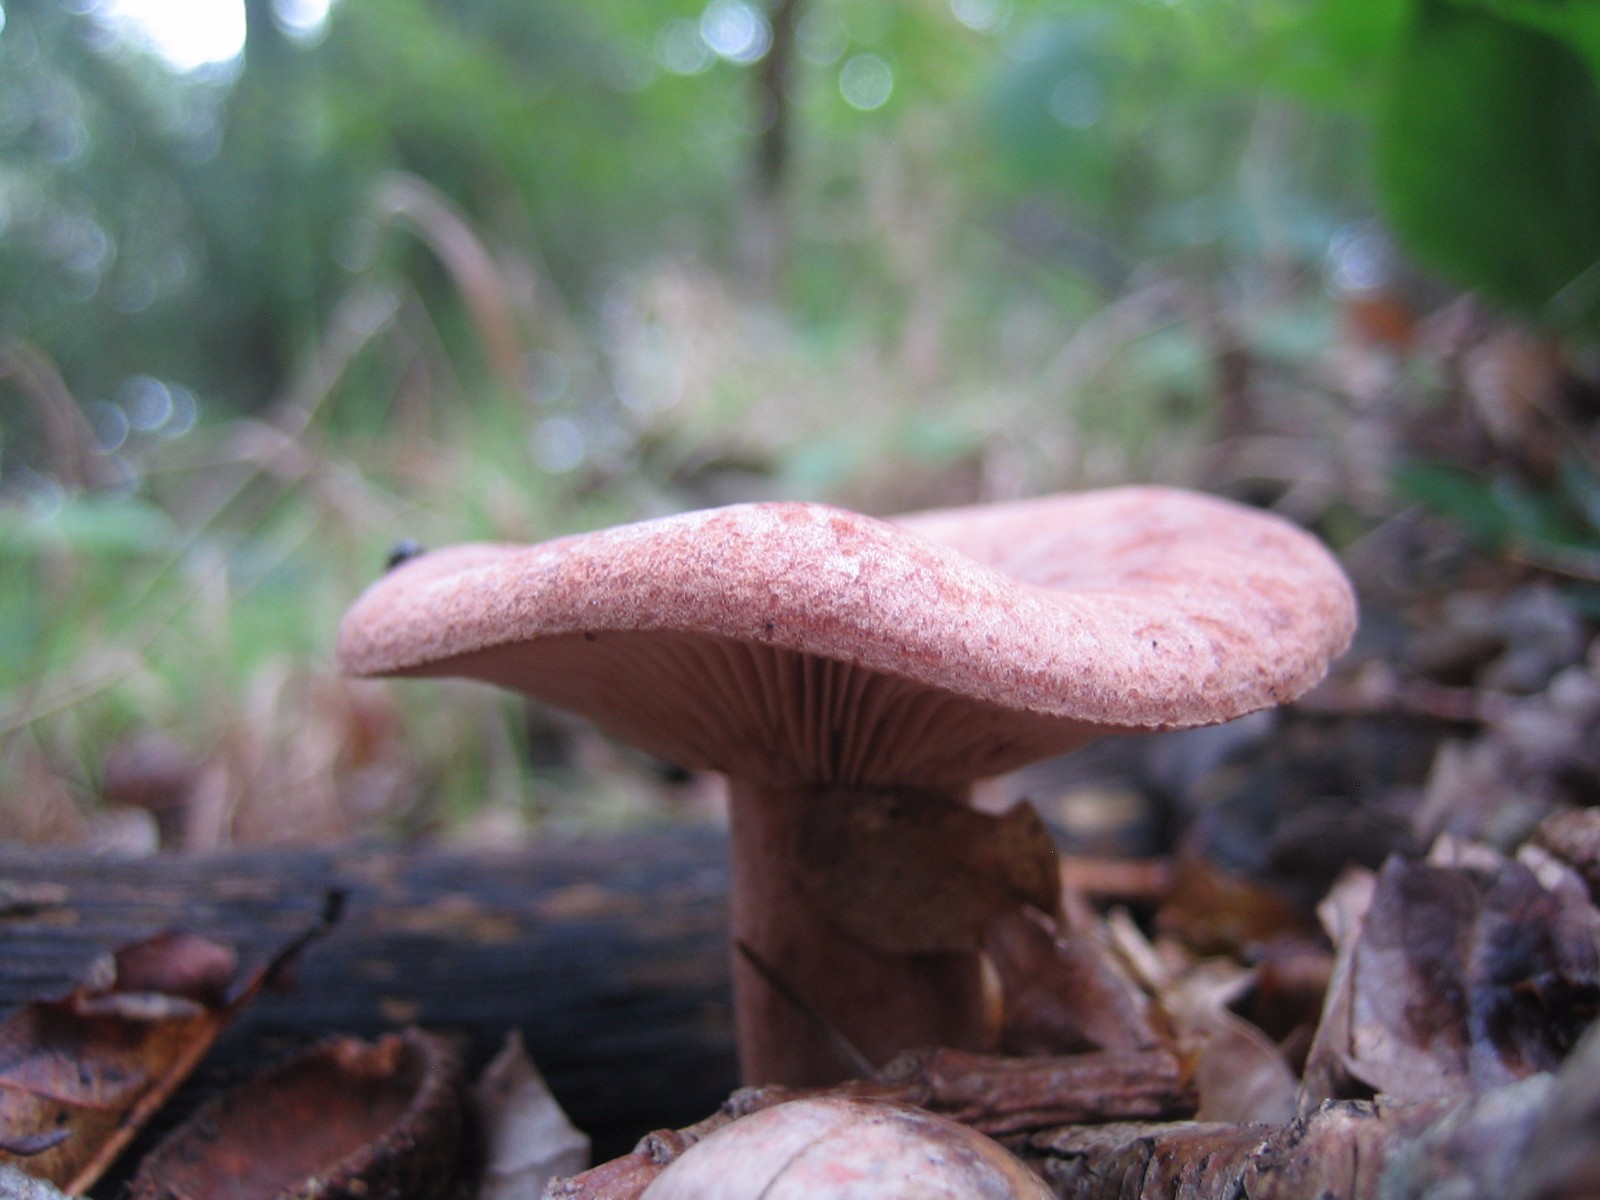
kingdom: Fungi
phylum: Basidiomycota
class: Agaricomycetes
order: Russulales
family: Russulaceae
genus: Lactarius
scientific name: Lactarius quietus
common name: ege-mælkehat
